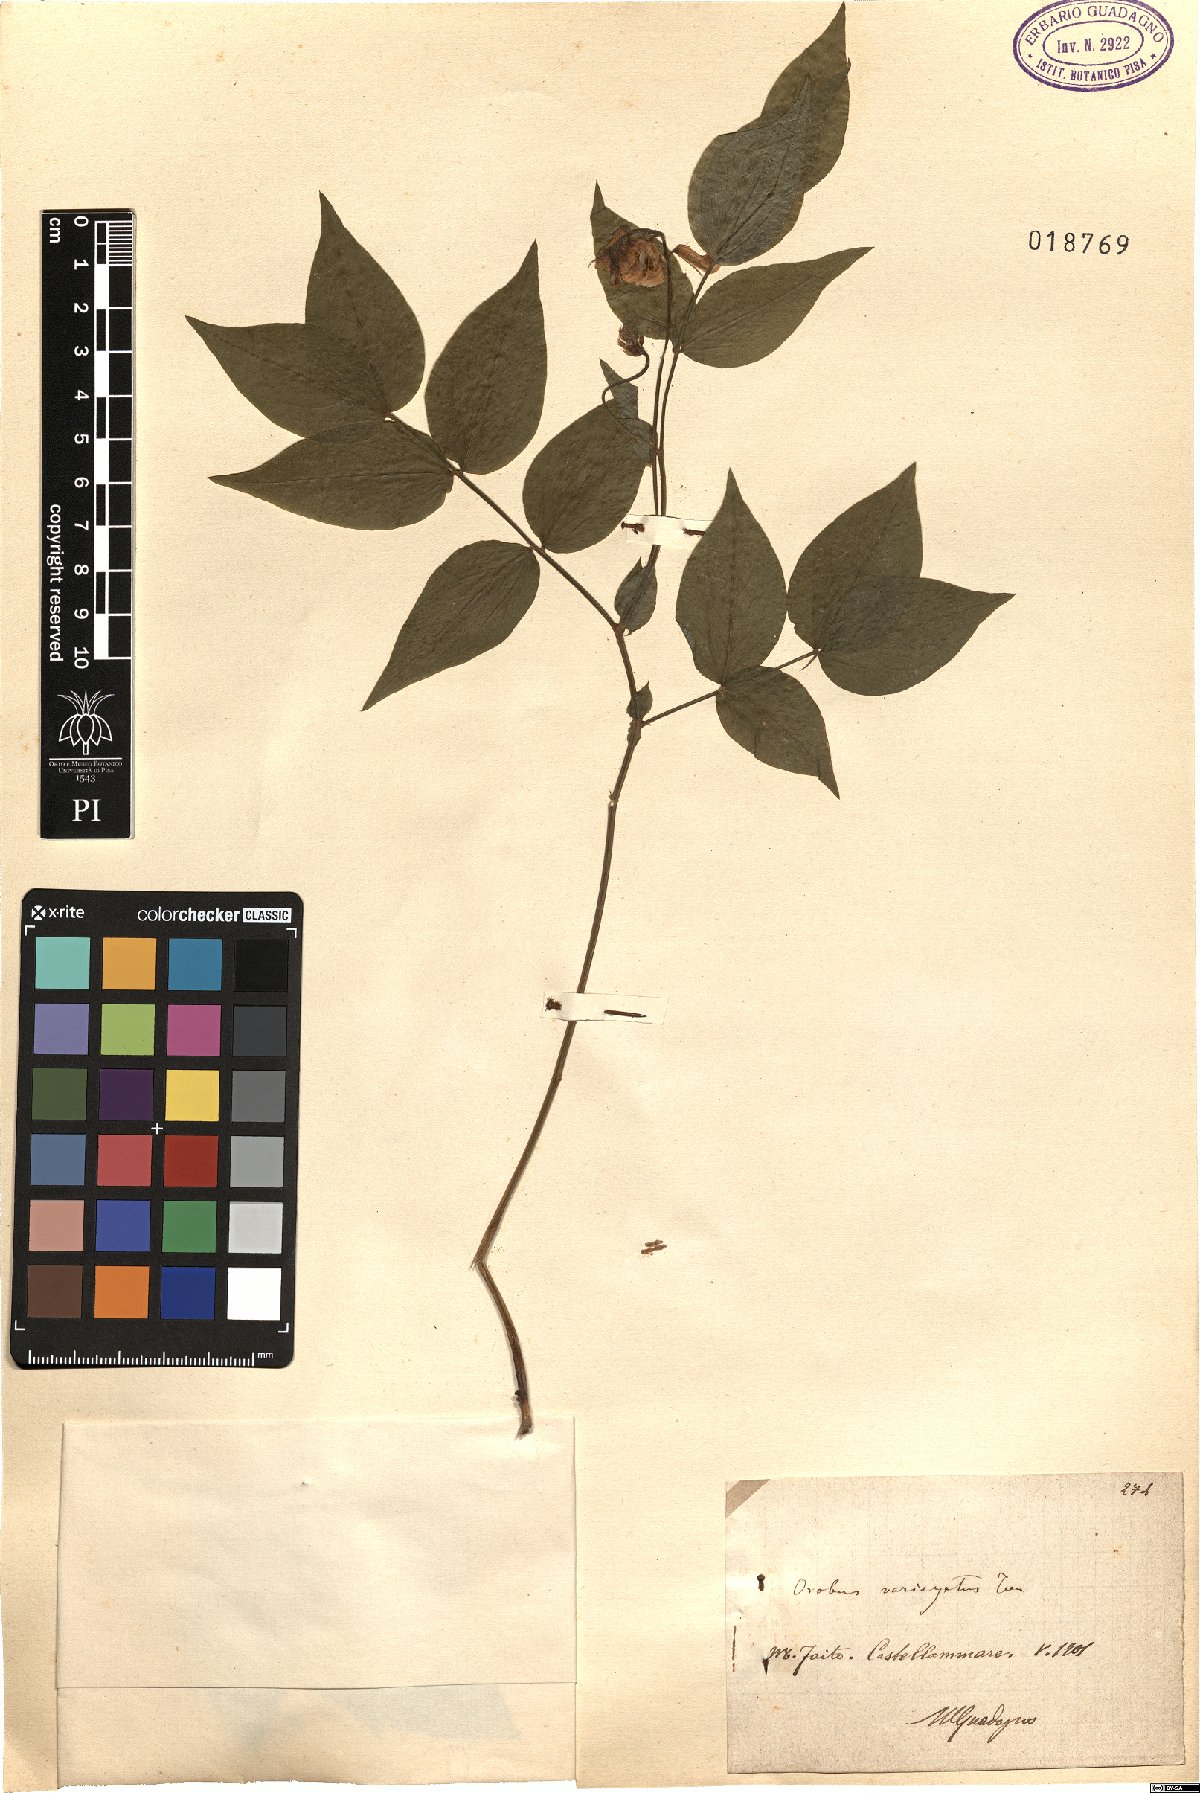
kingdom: Plantae
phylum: Tracheophyta
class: Magnoliopsida
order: Fabales
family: Fabaceae
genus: Lathyrus
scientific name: Lathyrus venetus
